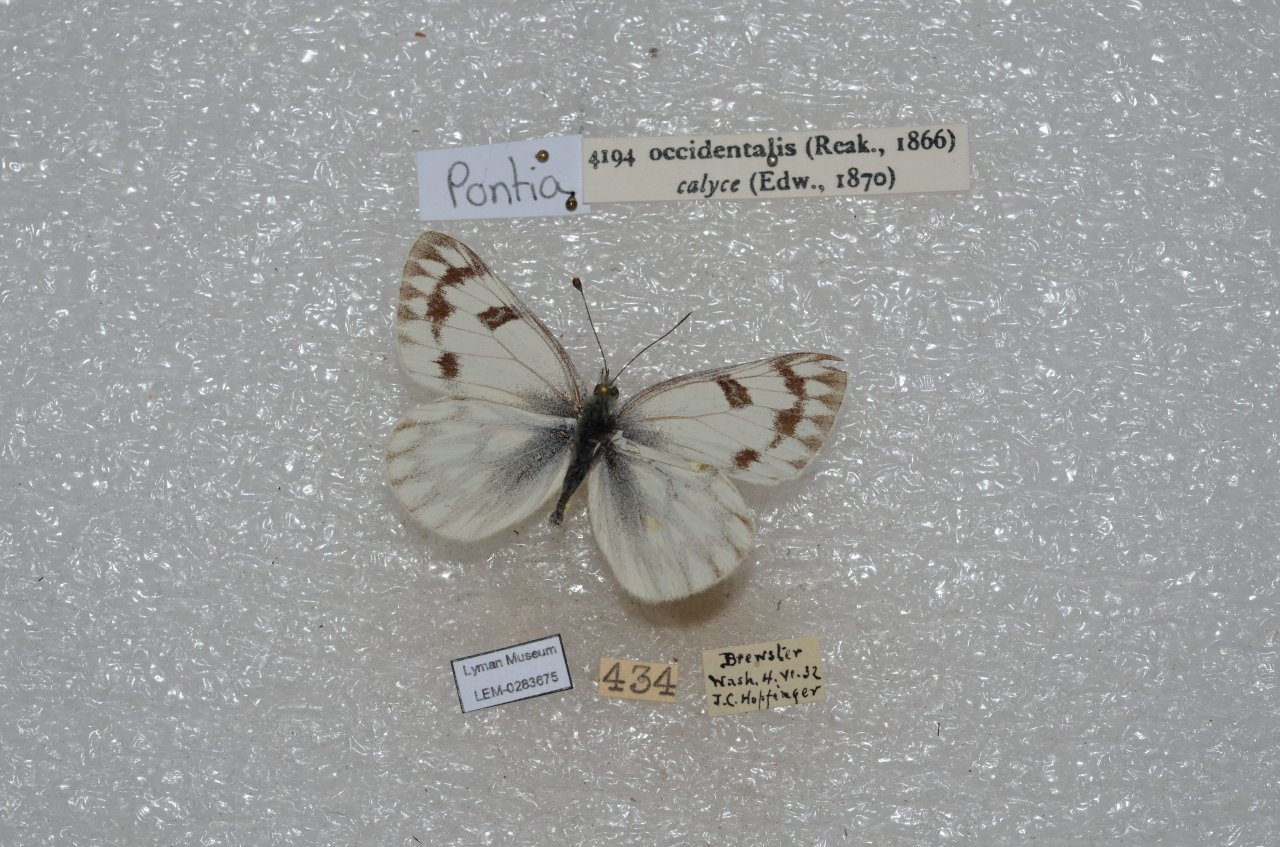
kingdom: Animalia
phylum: Arthropoda
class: Insecta
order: Lepidoptera
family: Pieridae
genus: Pontia
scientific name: Pontia occidentalis
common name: Western White
